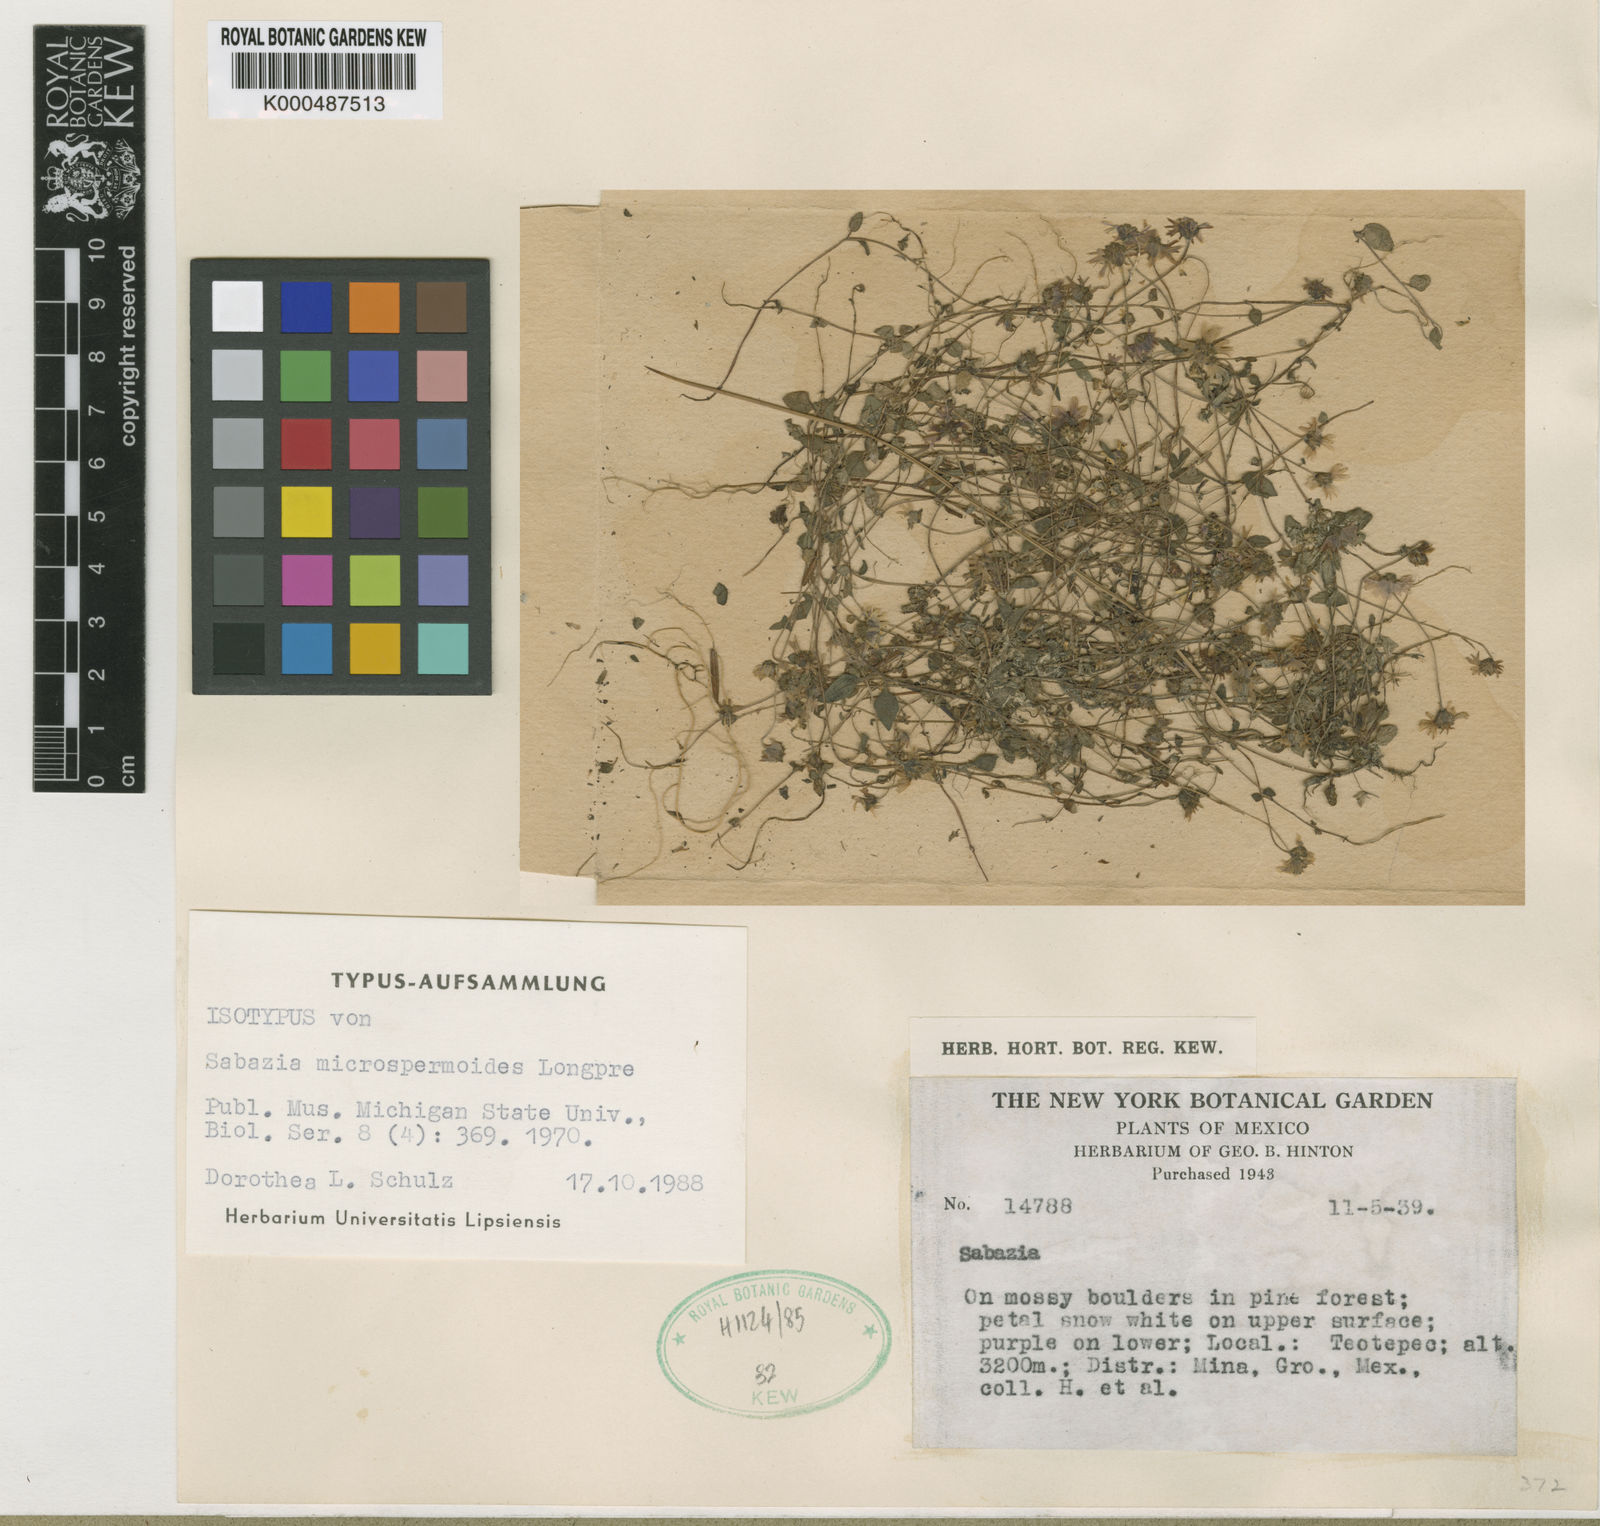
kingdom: Plantae
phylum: Tracheophyta
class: Magnoliopsida
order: Asterales
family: Asteraceae
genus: Sabazia
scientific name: Sabazia microspermoides
